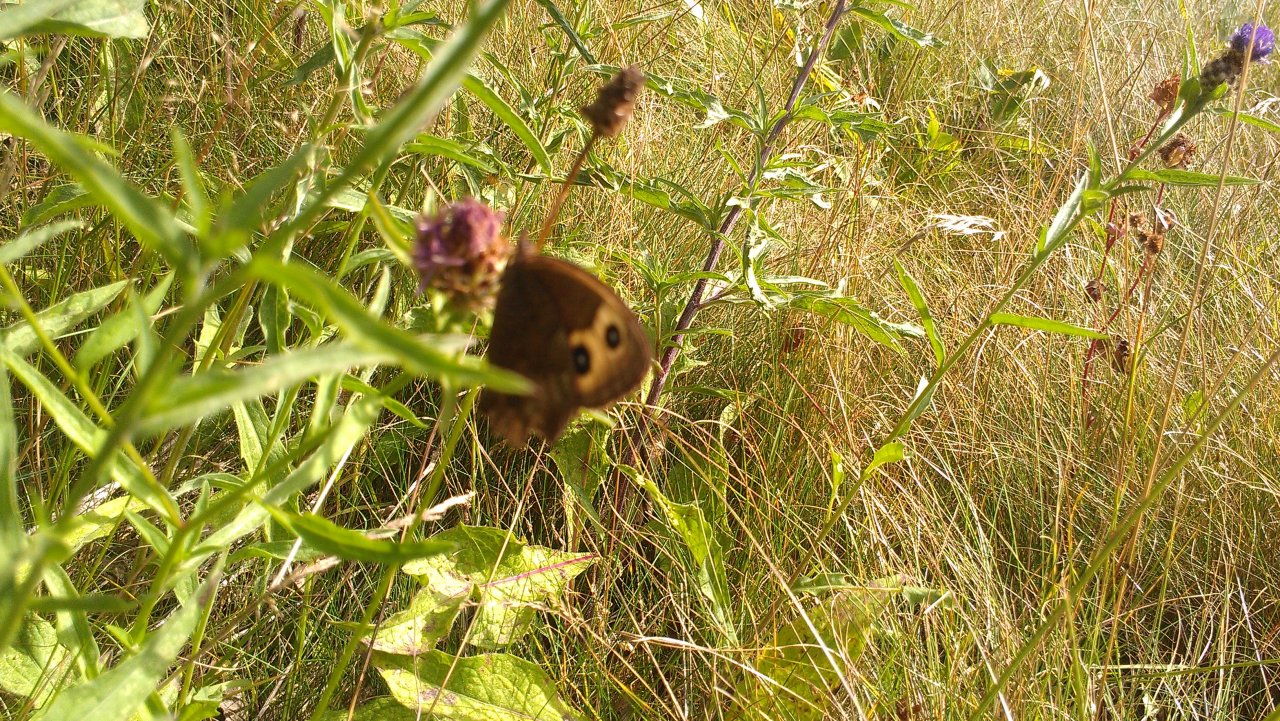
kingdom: Animalia
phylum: Arthropoda
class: Insecta
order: Lepidoptera
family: Nymphalidae
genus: Cercyonis
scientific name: Cercyonis pegala
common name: Common Wood-Nymph
